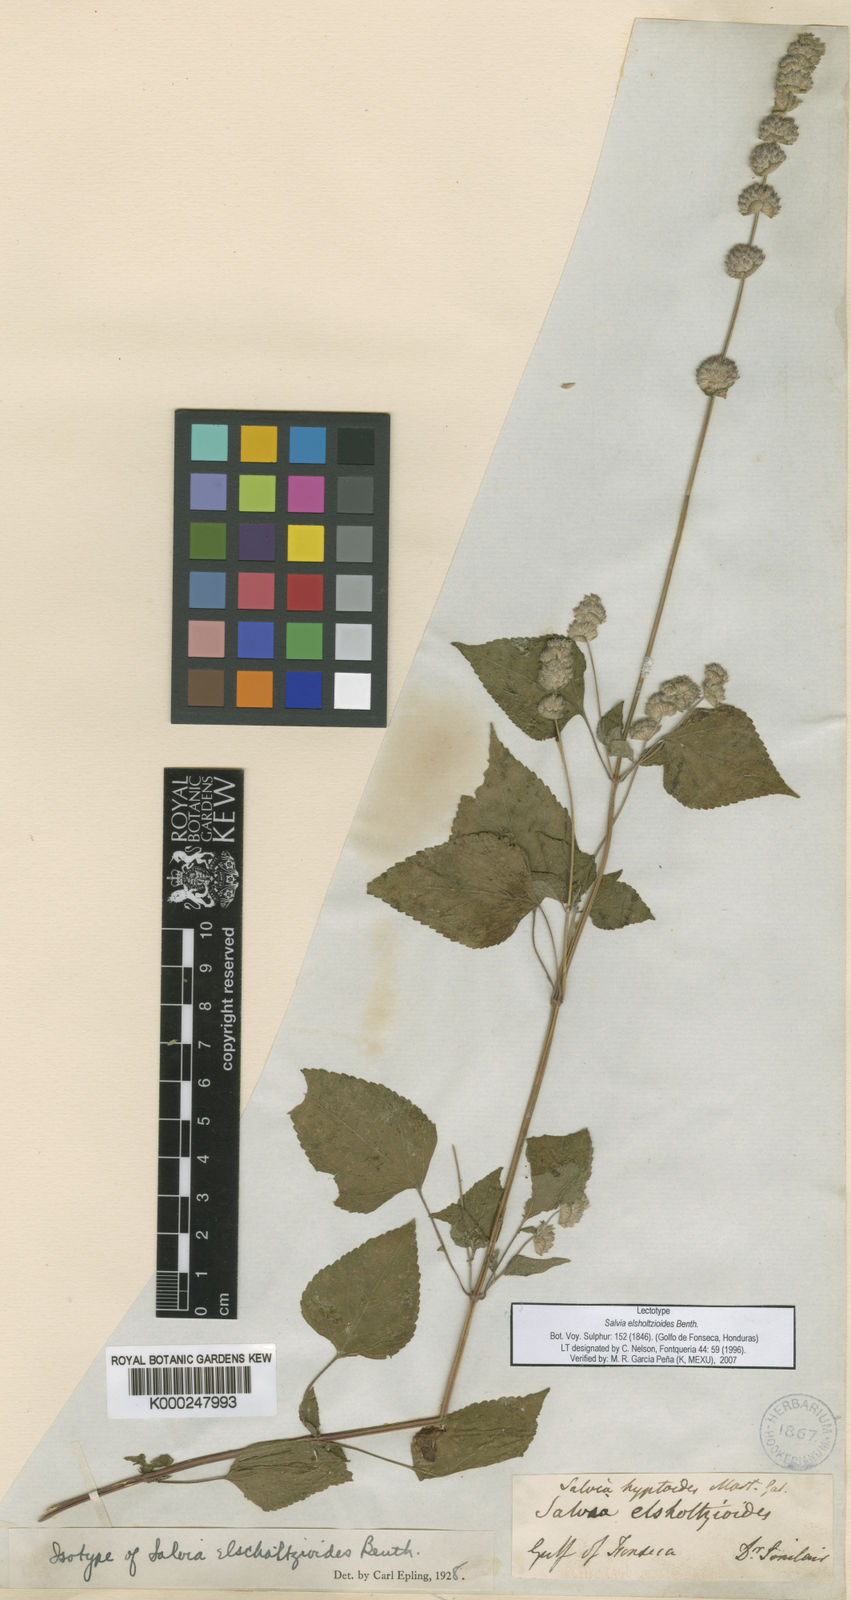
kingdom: Plantae
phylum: Tracheophyta
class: Magnoliopsida
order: Lamiales
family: Lamiaceae
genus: Salvia
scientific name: Salvia lasiocephala
